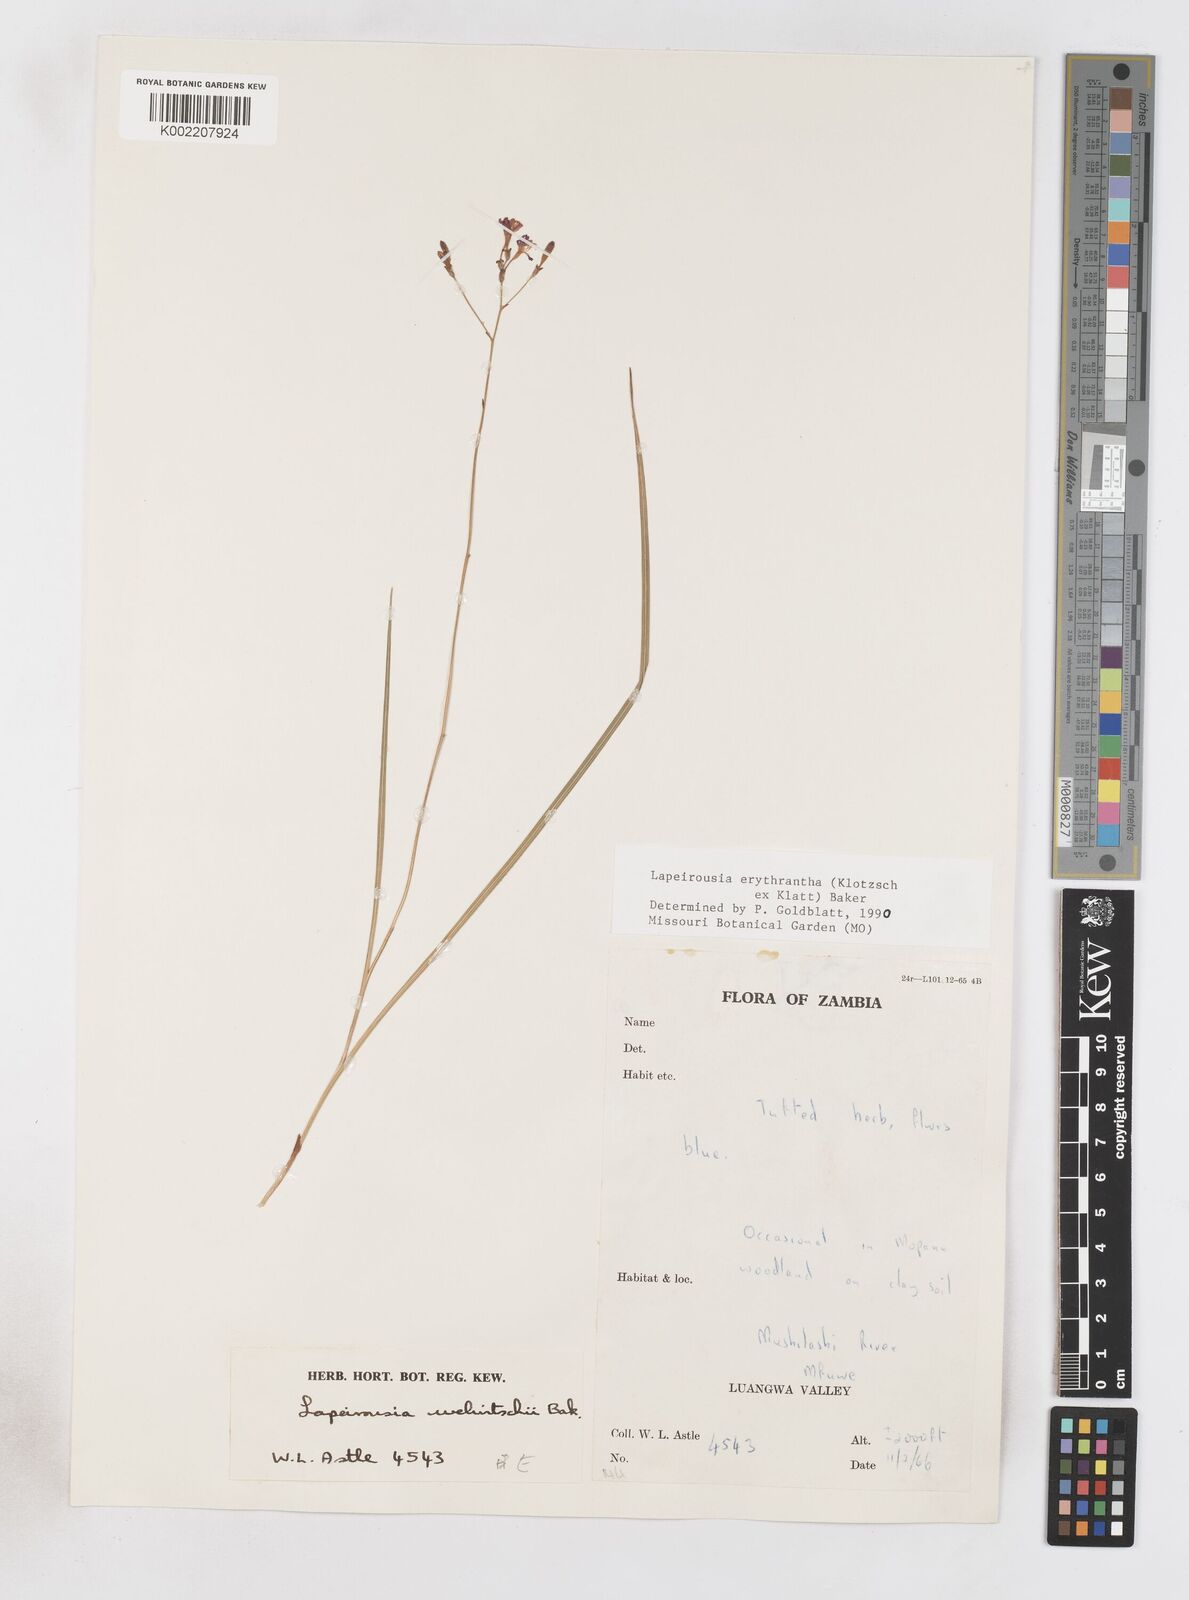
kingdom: Plantae
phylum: Tracheophyta
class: Liliopsida
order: Asparagales
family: Iridaceae
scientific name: Iridaceae
